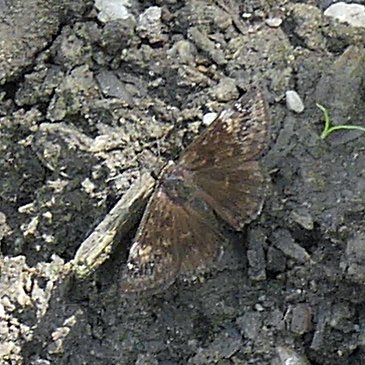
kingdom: Animalia
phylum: Arthropoda
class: Insecta
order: Lepidoptera
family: Hesperiidae
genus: Gesta
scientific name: Gesta
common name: Wild Indigo Duskywing
